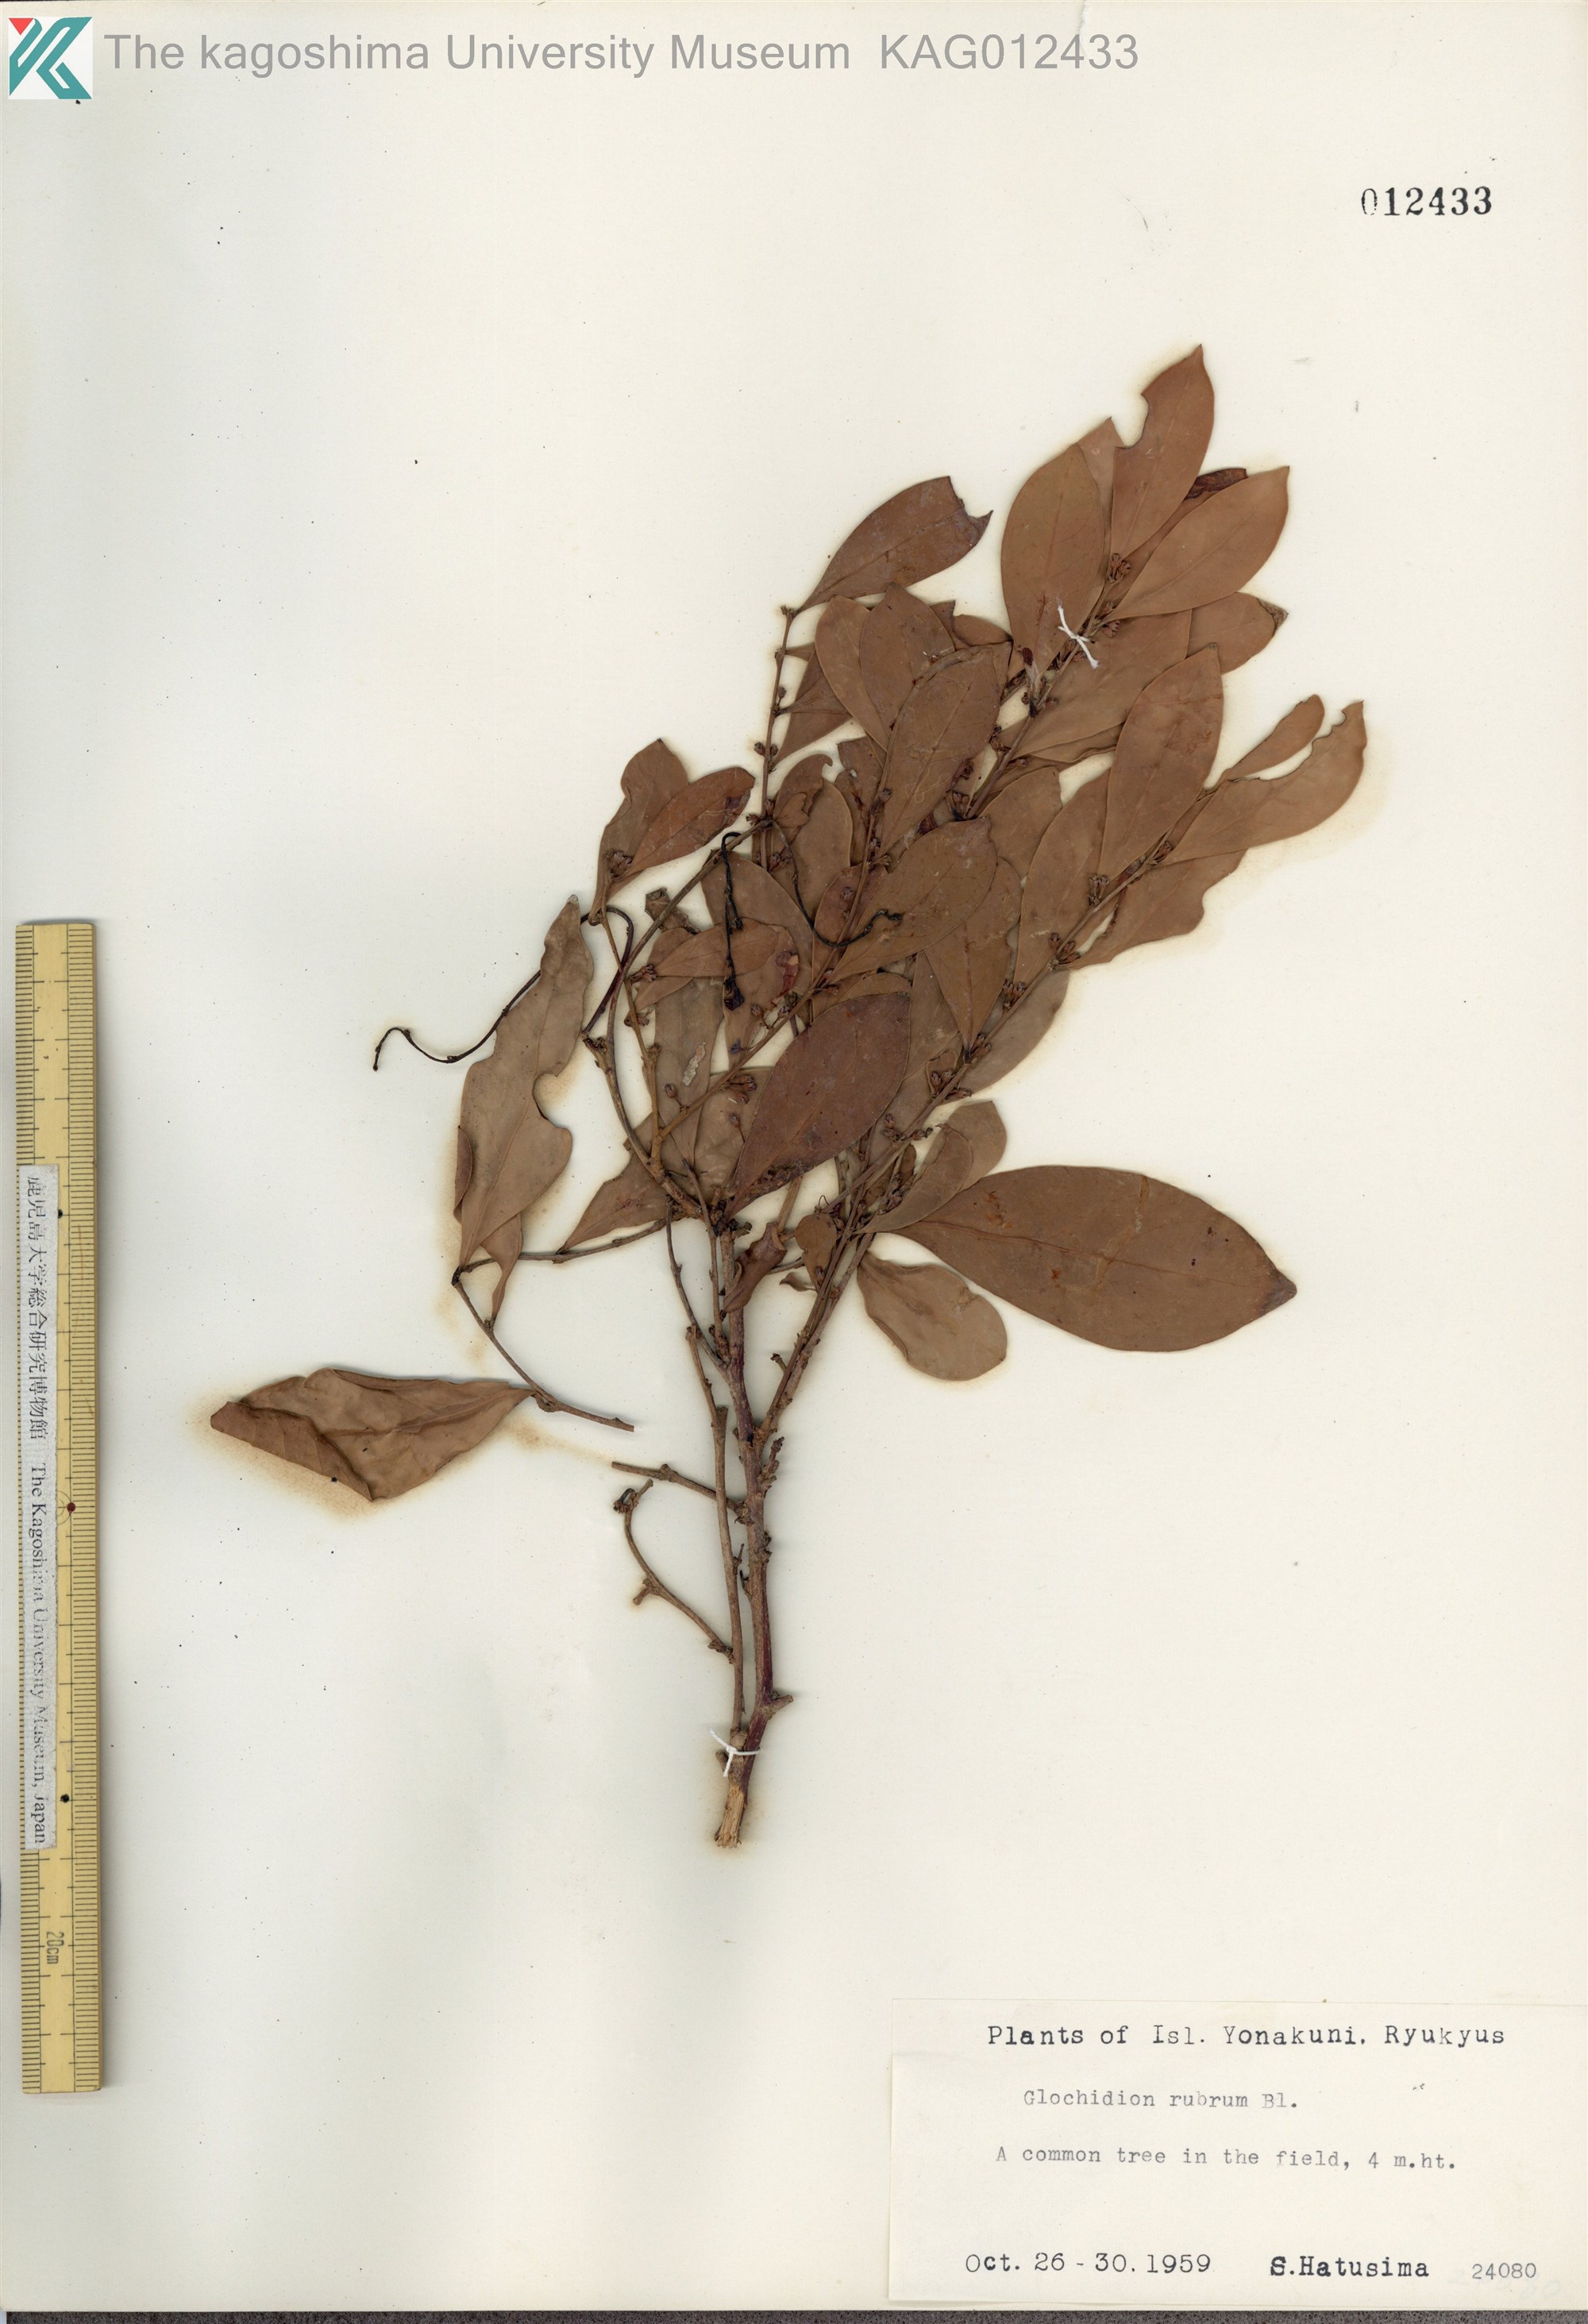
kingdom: Plantae
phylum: Tracheophyta
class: Magnoliopsida
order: Malpighiales
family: Phyllanthaceae
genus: Glochidion
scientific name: Glochidion rubrum
